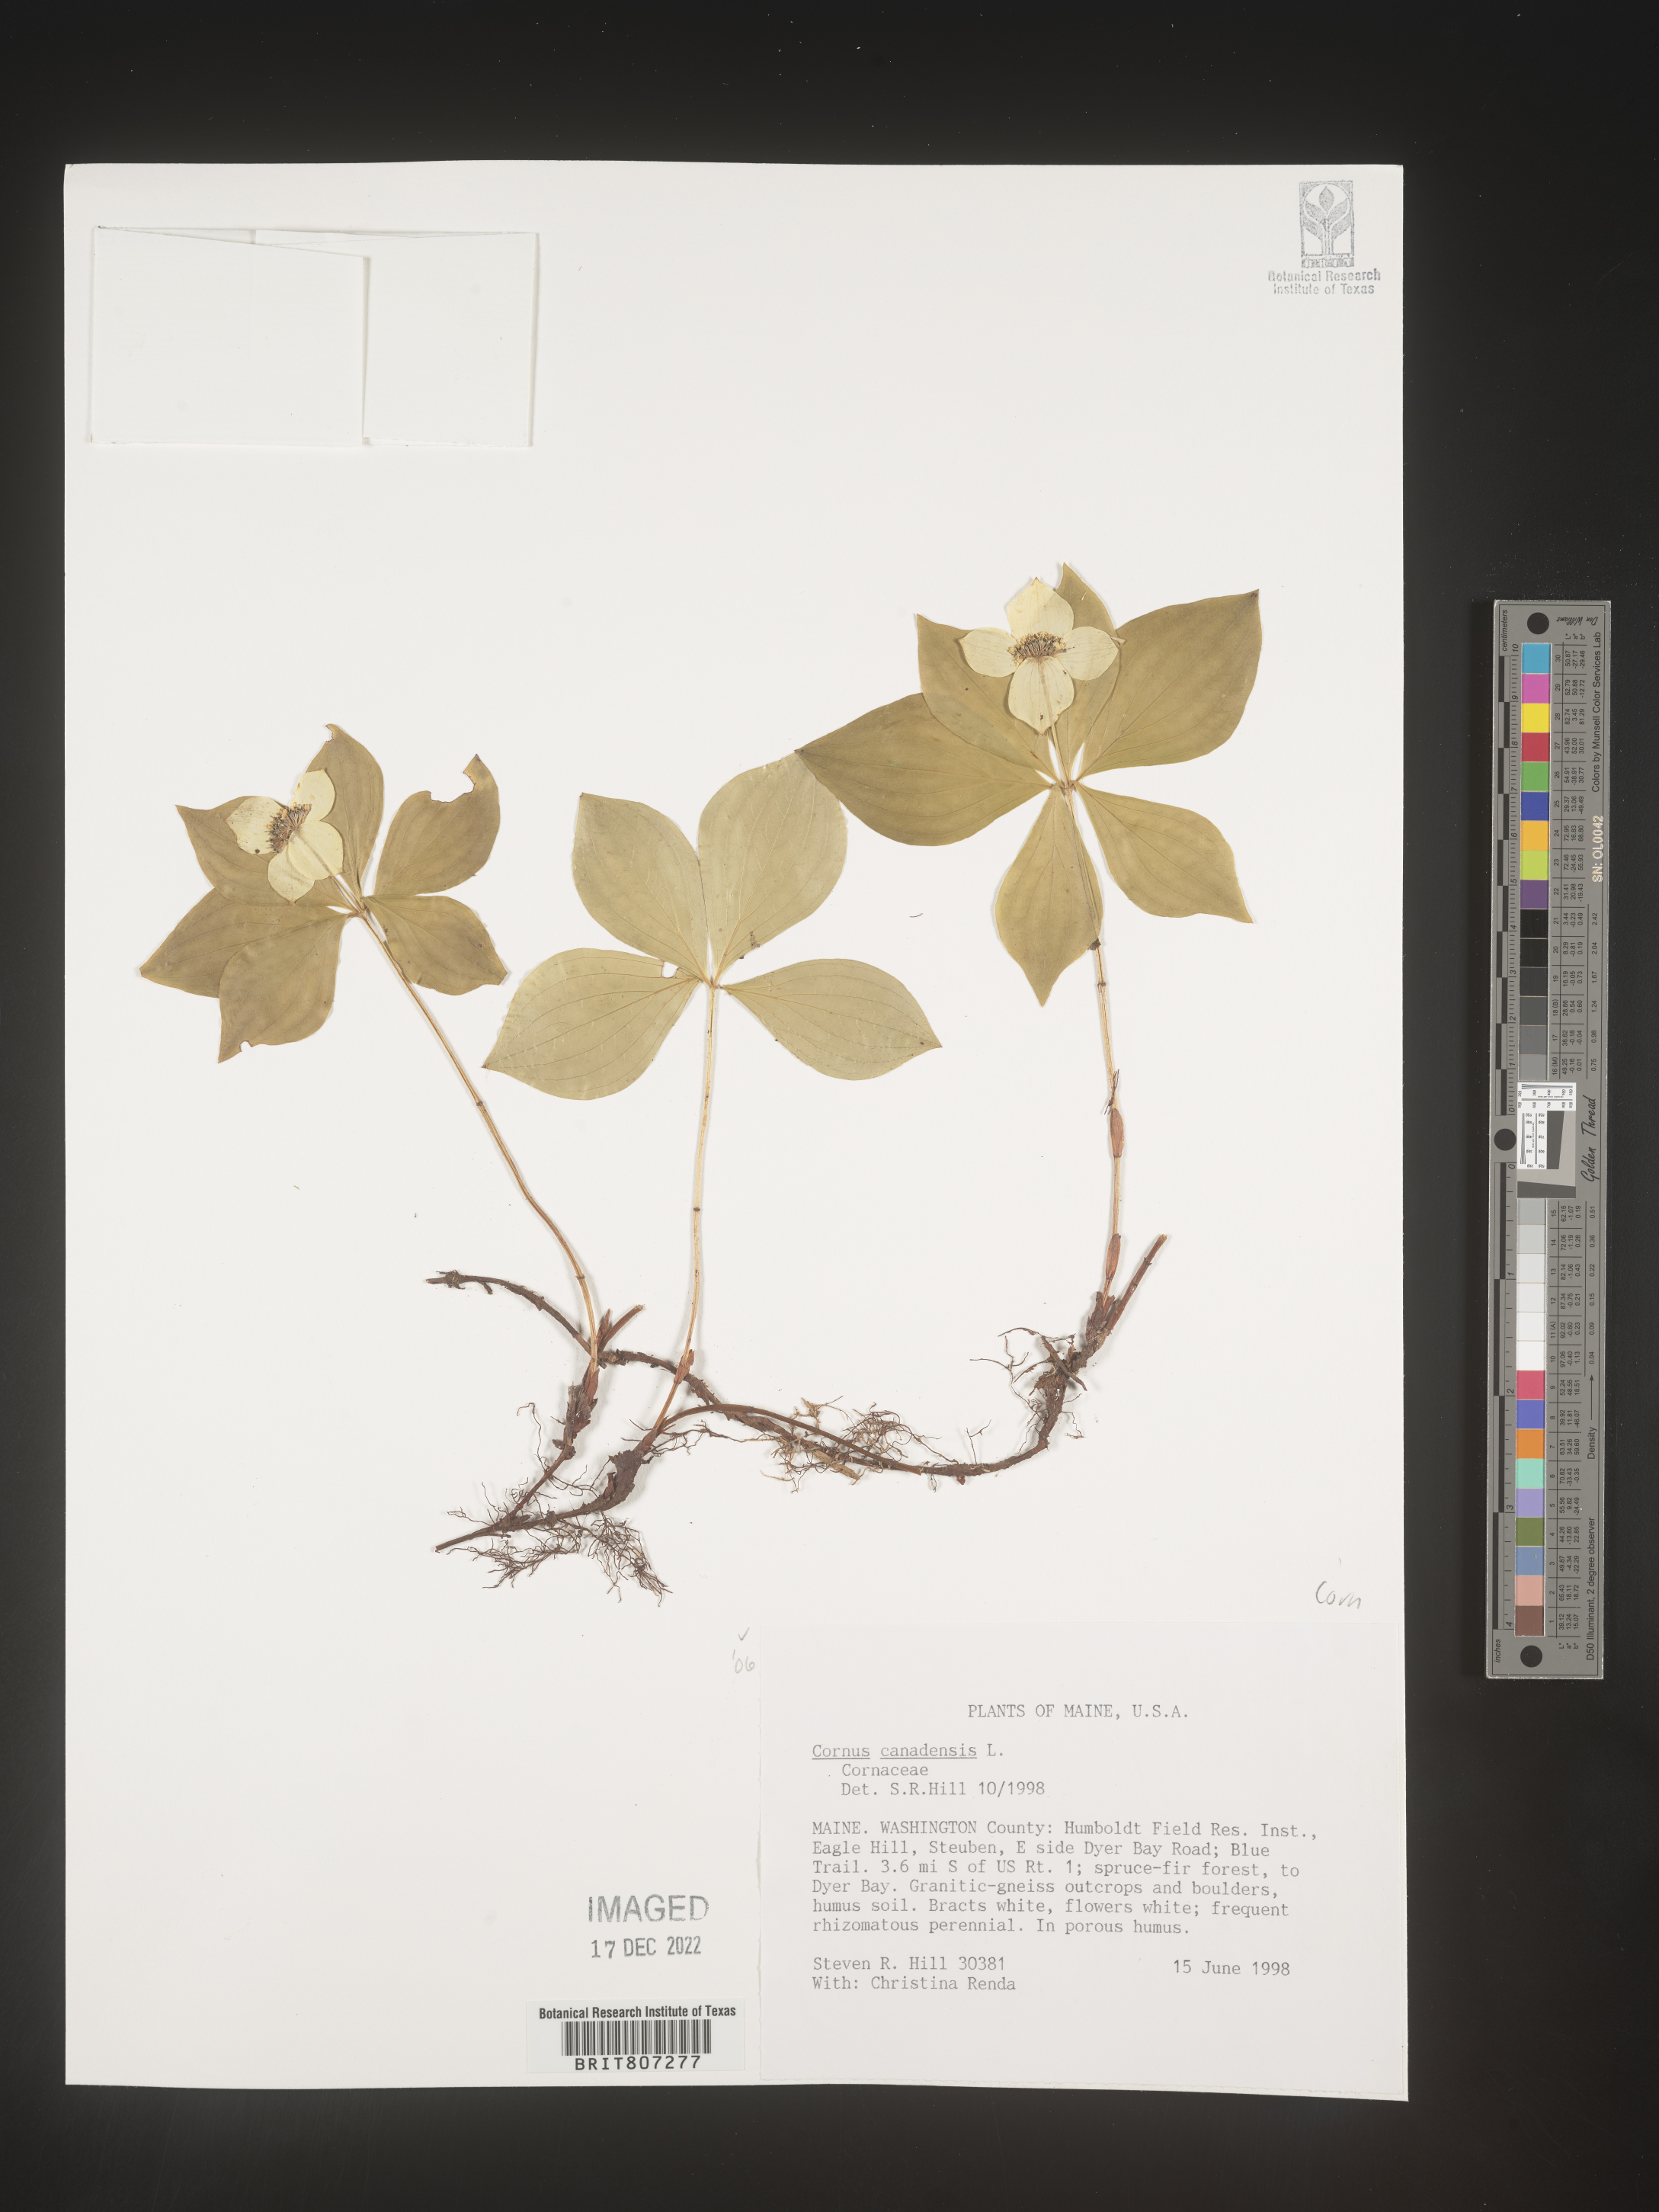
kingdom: Plantae
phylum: Tracheophyta
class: Magnoliopsida
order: Cornales
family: Cornaceae
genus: Cornus
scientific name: Cornus canadensis
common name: Creeping dogwood
